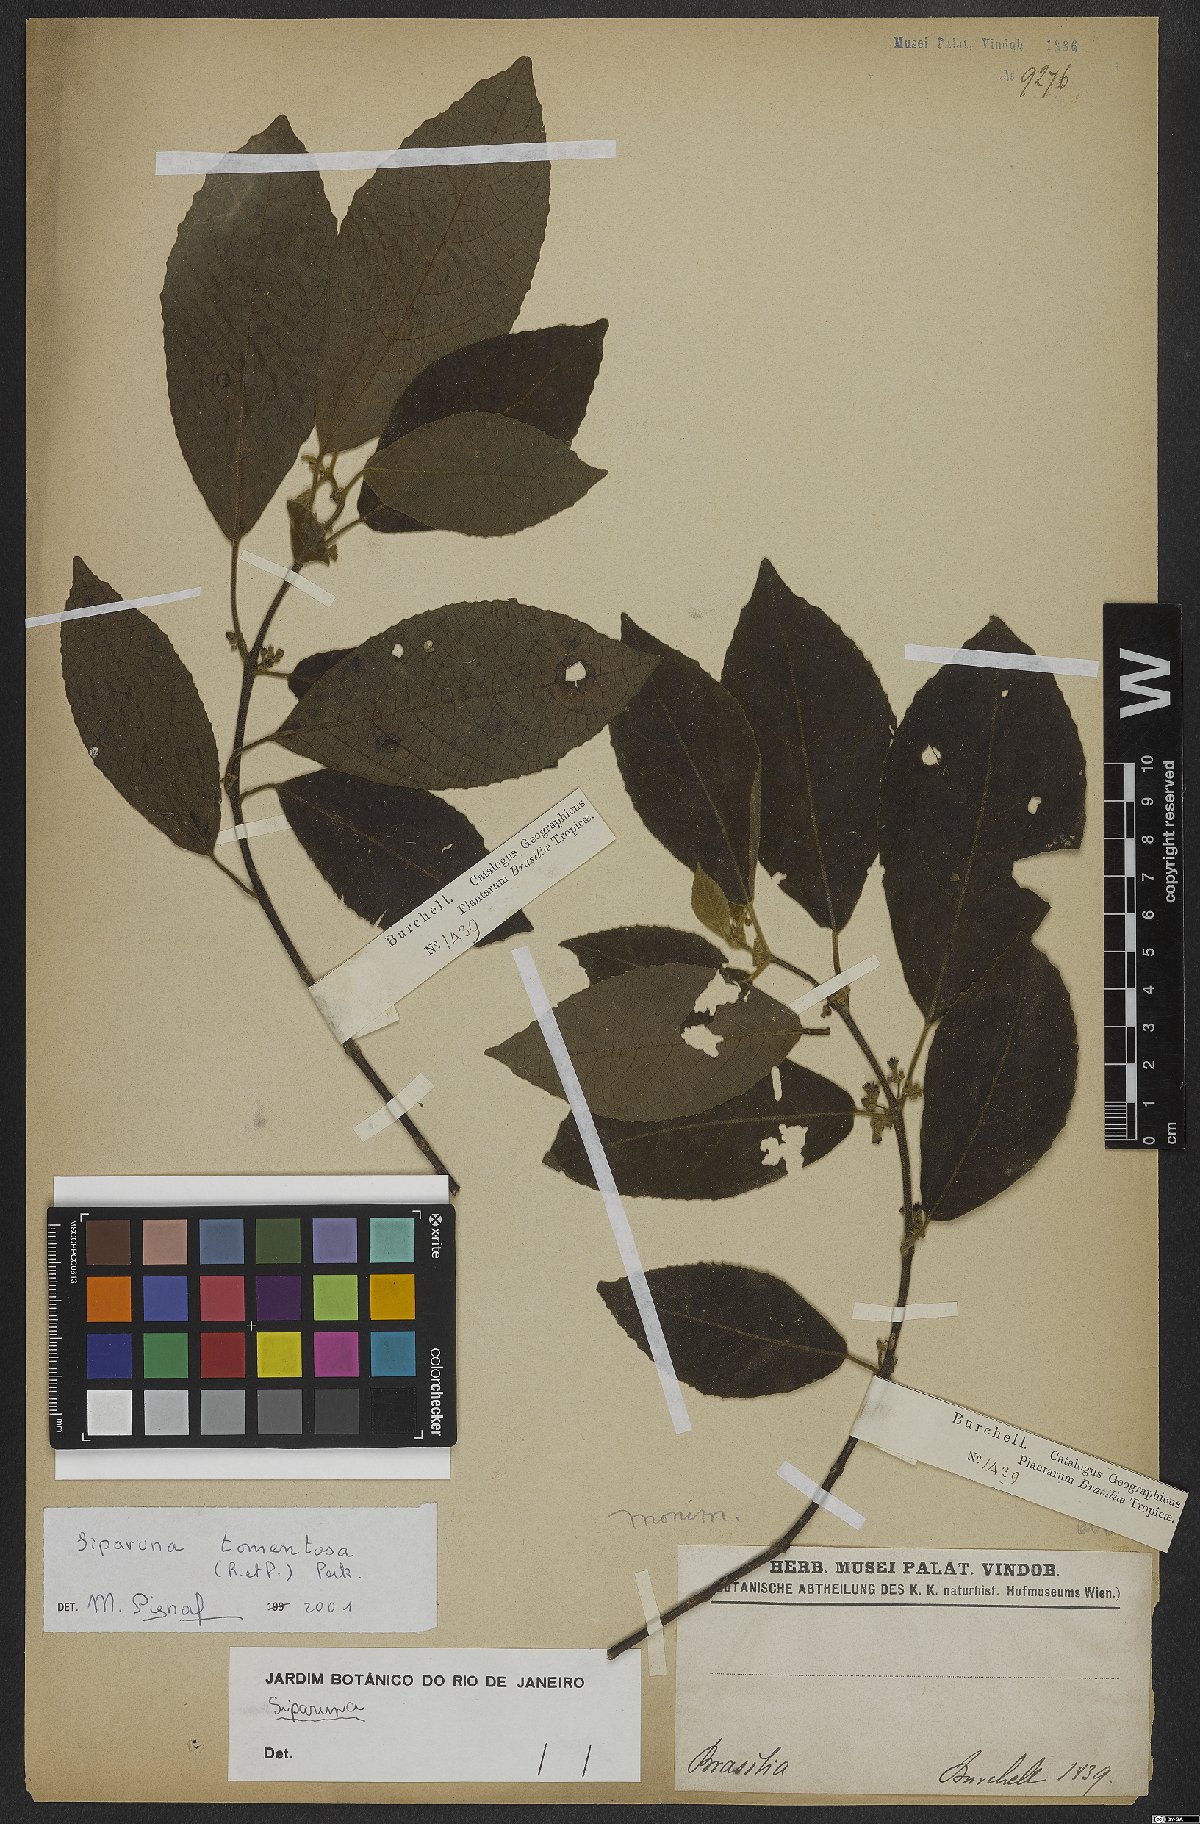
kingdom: Plantae
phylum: Tracheophyta
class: Magnoliopsida
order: Laurales
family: Siparunaceae
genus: Siparuna
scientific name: Siparuna tomentosa
